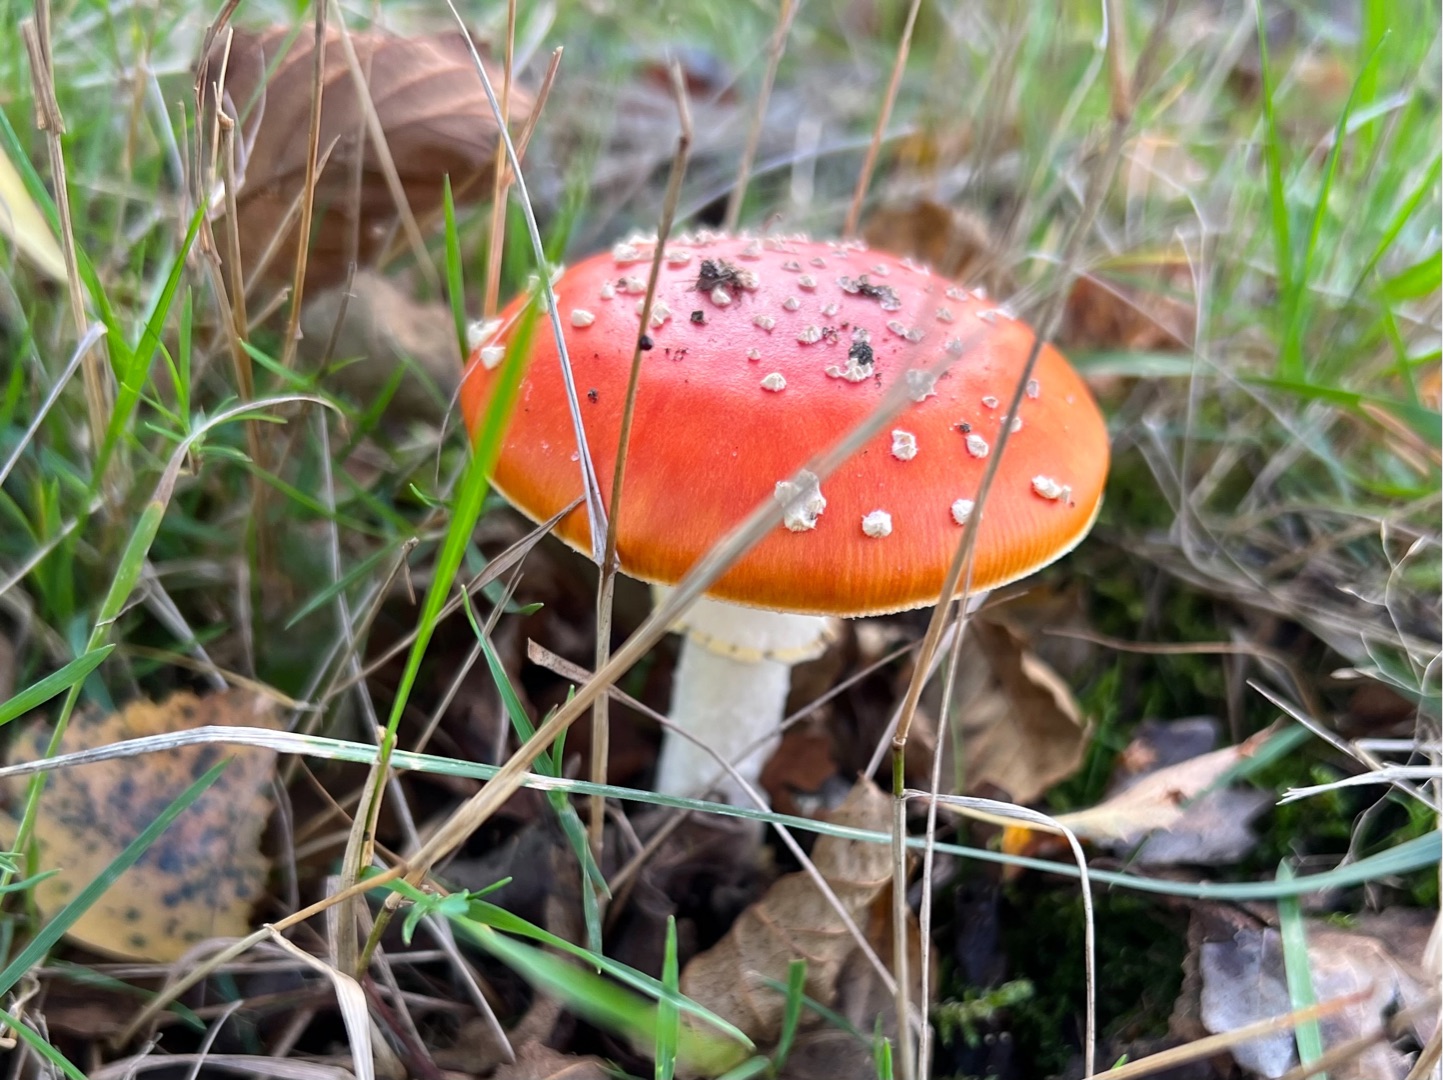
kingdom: Fungi
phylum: Basidiomycota
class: Agaricomycetes
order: Agaricales
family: Amanitaceae
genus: Amanita
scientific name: Amanita muscaria
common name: Rød fluesvamp
